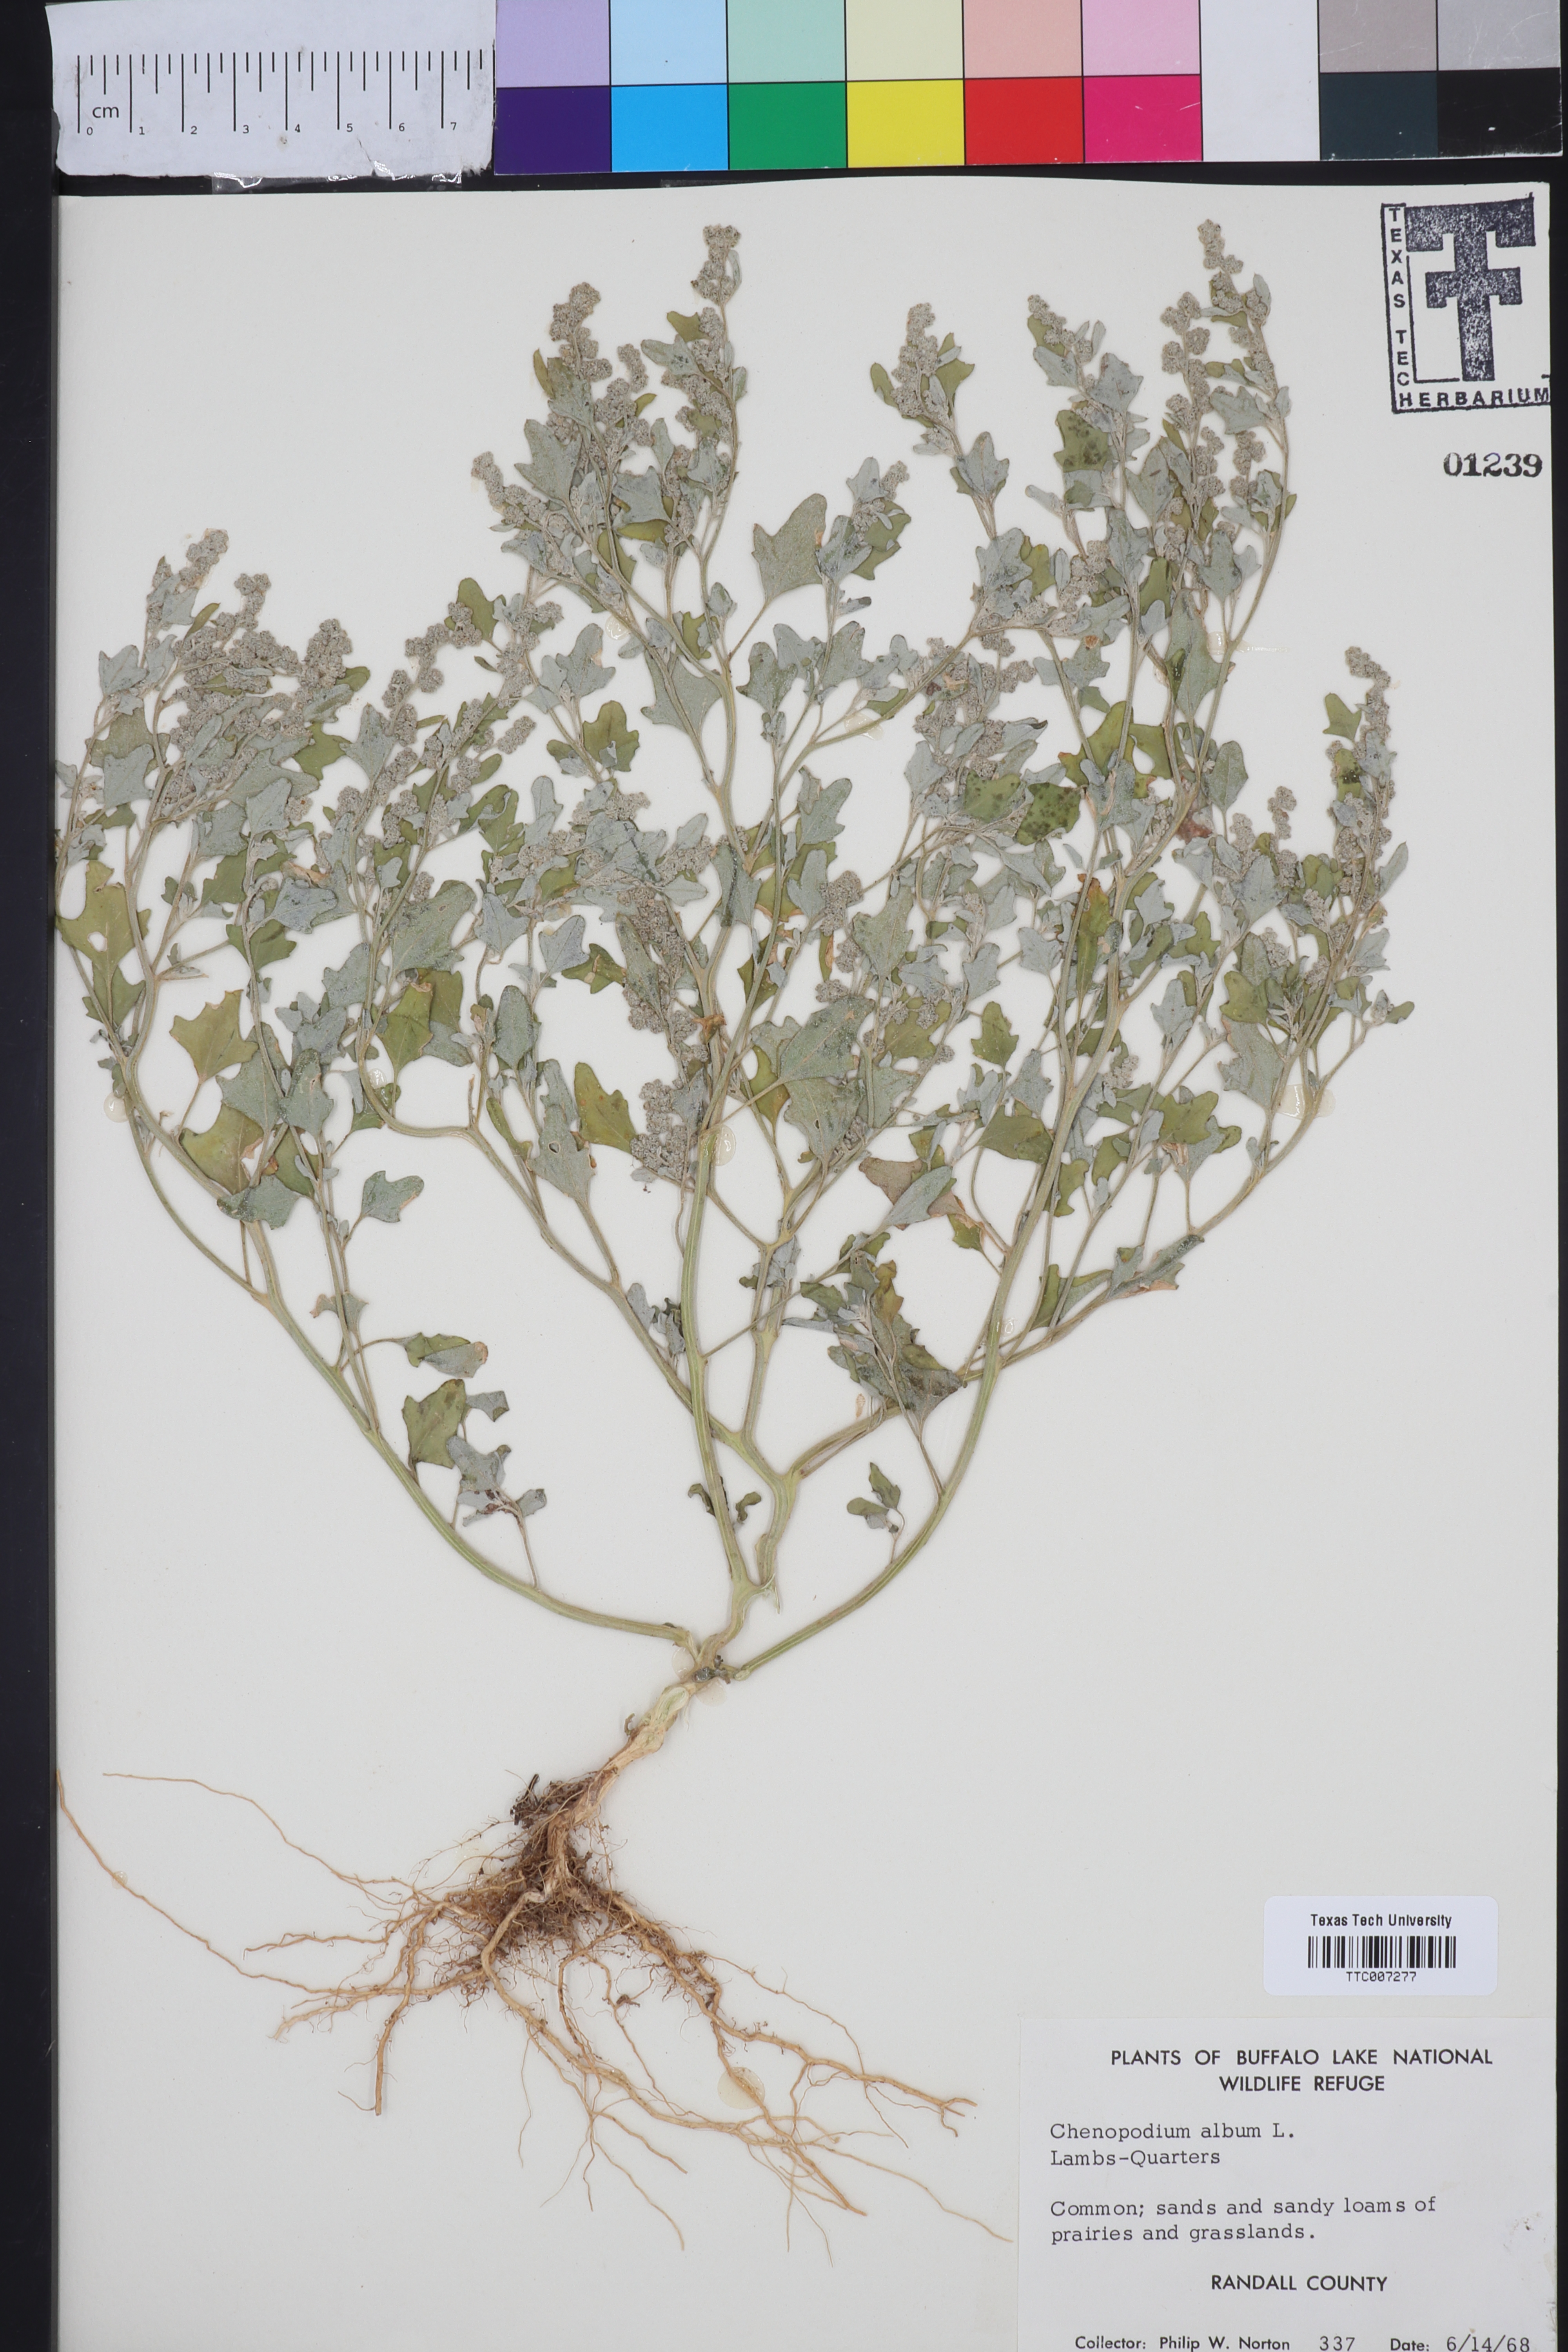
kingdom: Plantae
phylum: Tracheophyta
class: Magnoliopsida
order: Caryophyllales
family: Amaranthaceae
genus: Chenopodium
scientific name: Chenopodium album
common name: Fat-hen
